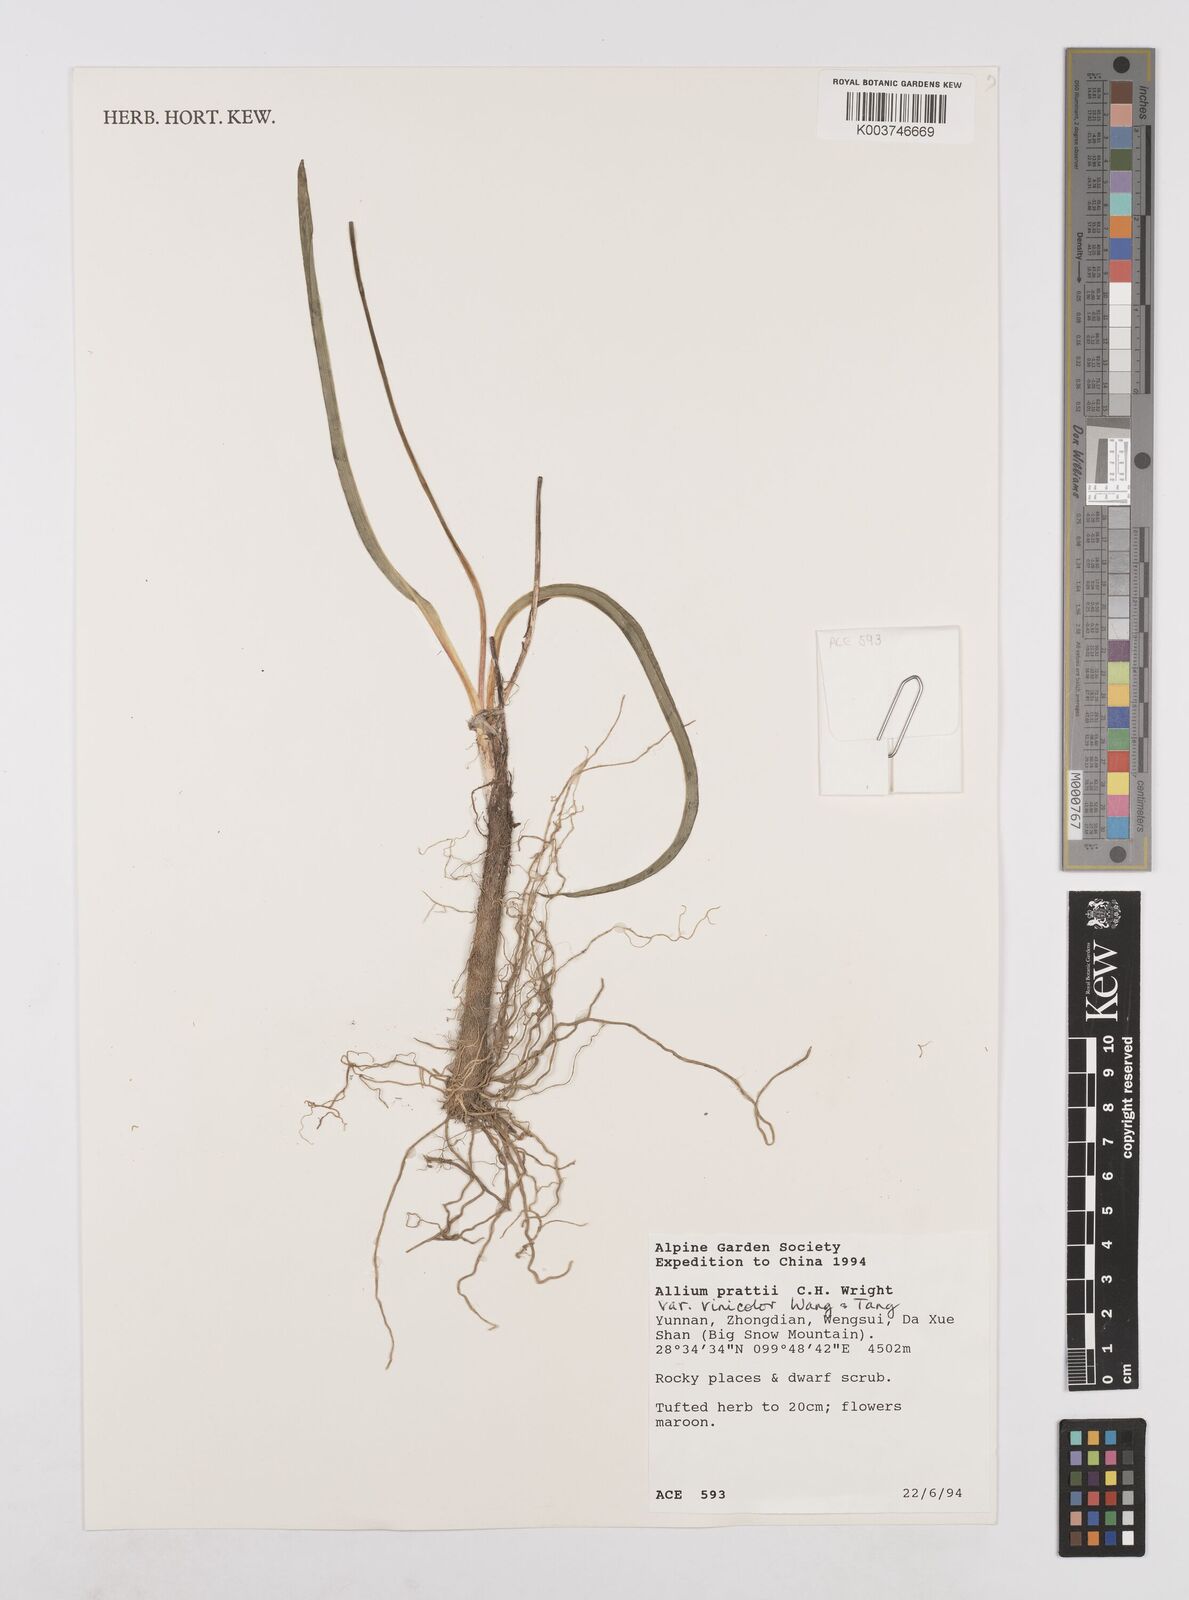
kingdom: Plantae
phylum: Tracheophyta
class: Liliopsida
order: Asparagales
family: Amaryllidaceae
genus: Allium
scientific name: Allium prattii
